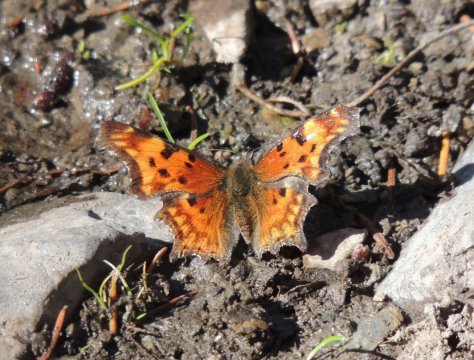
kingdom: Animalia
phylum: Arthropoda
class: Insecta
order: Lepidoptera
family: Nymphalidae
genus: Polygonia
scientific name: Polygonia gracilis
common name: Hoary Comma
